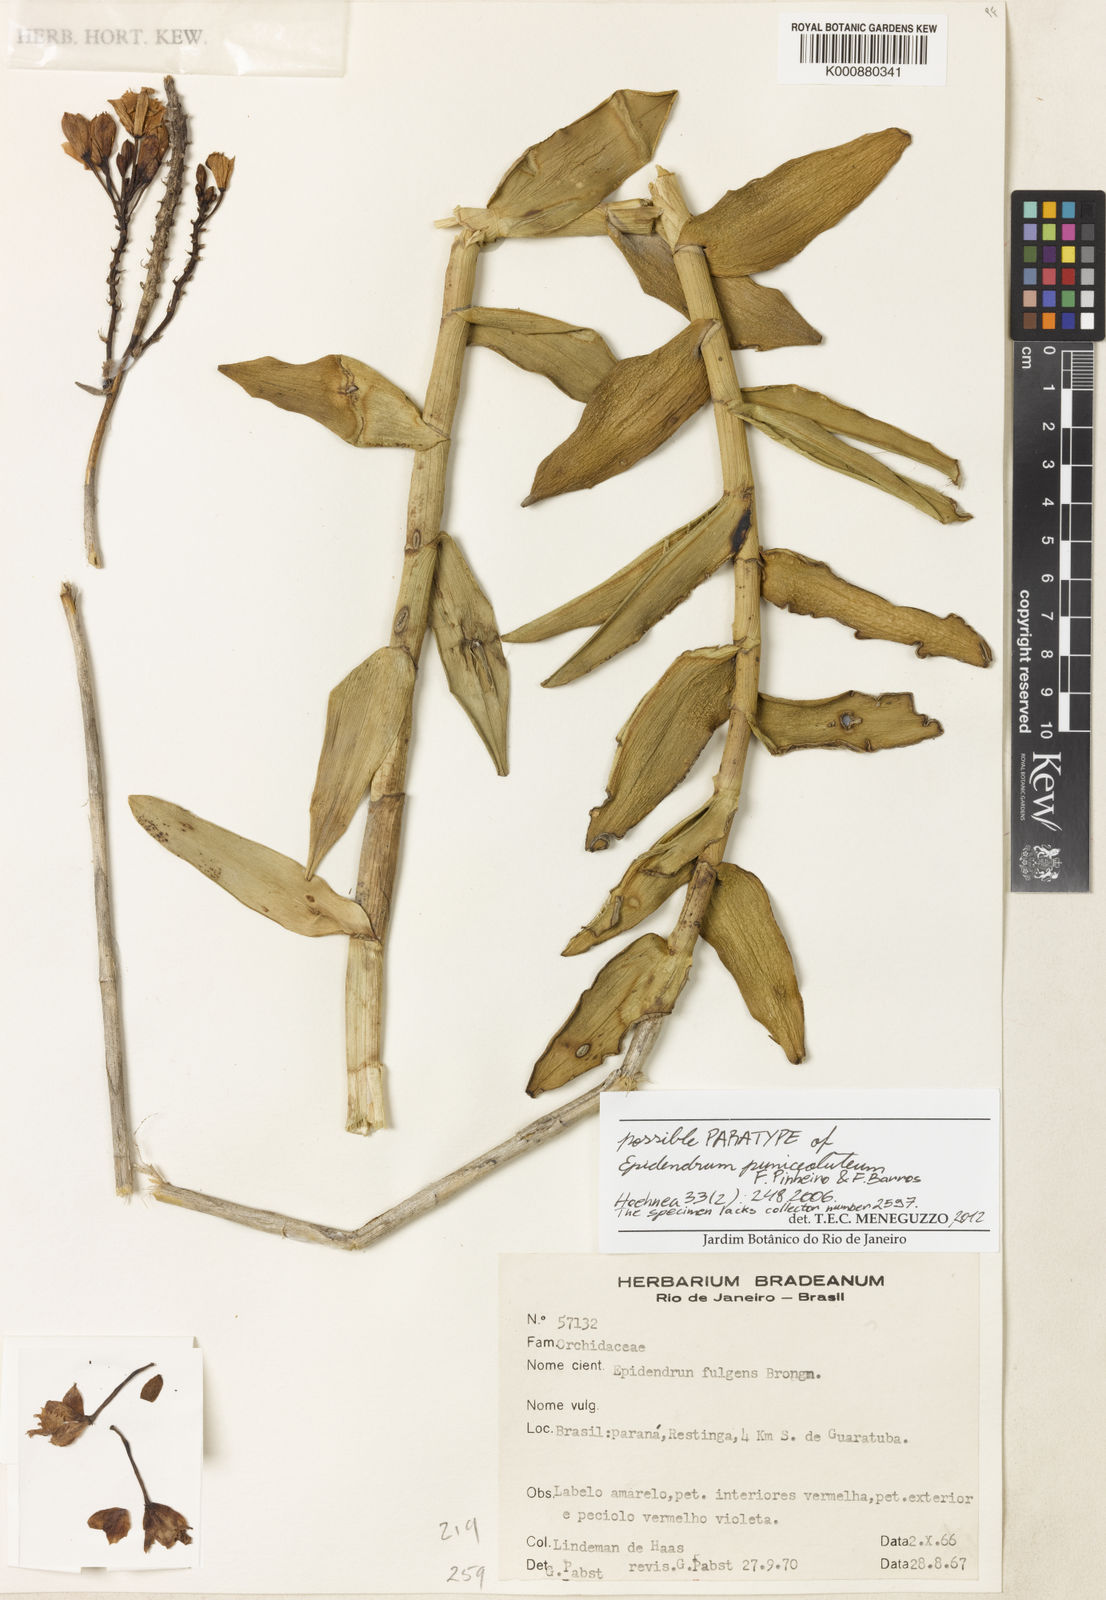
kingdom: Plantae
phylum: Tracheophyta
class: Liliopsida
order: Asparagales
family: Orchidaceae
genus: Epidendrum
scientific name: Epidendrum puniceoluteum
